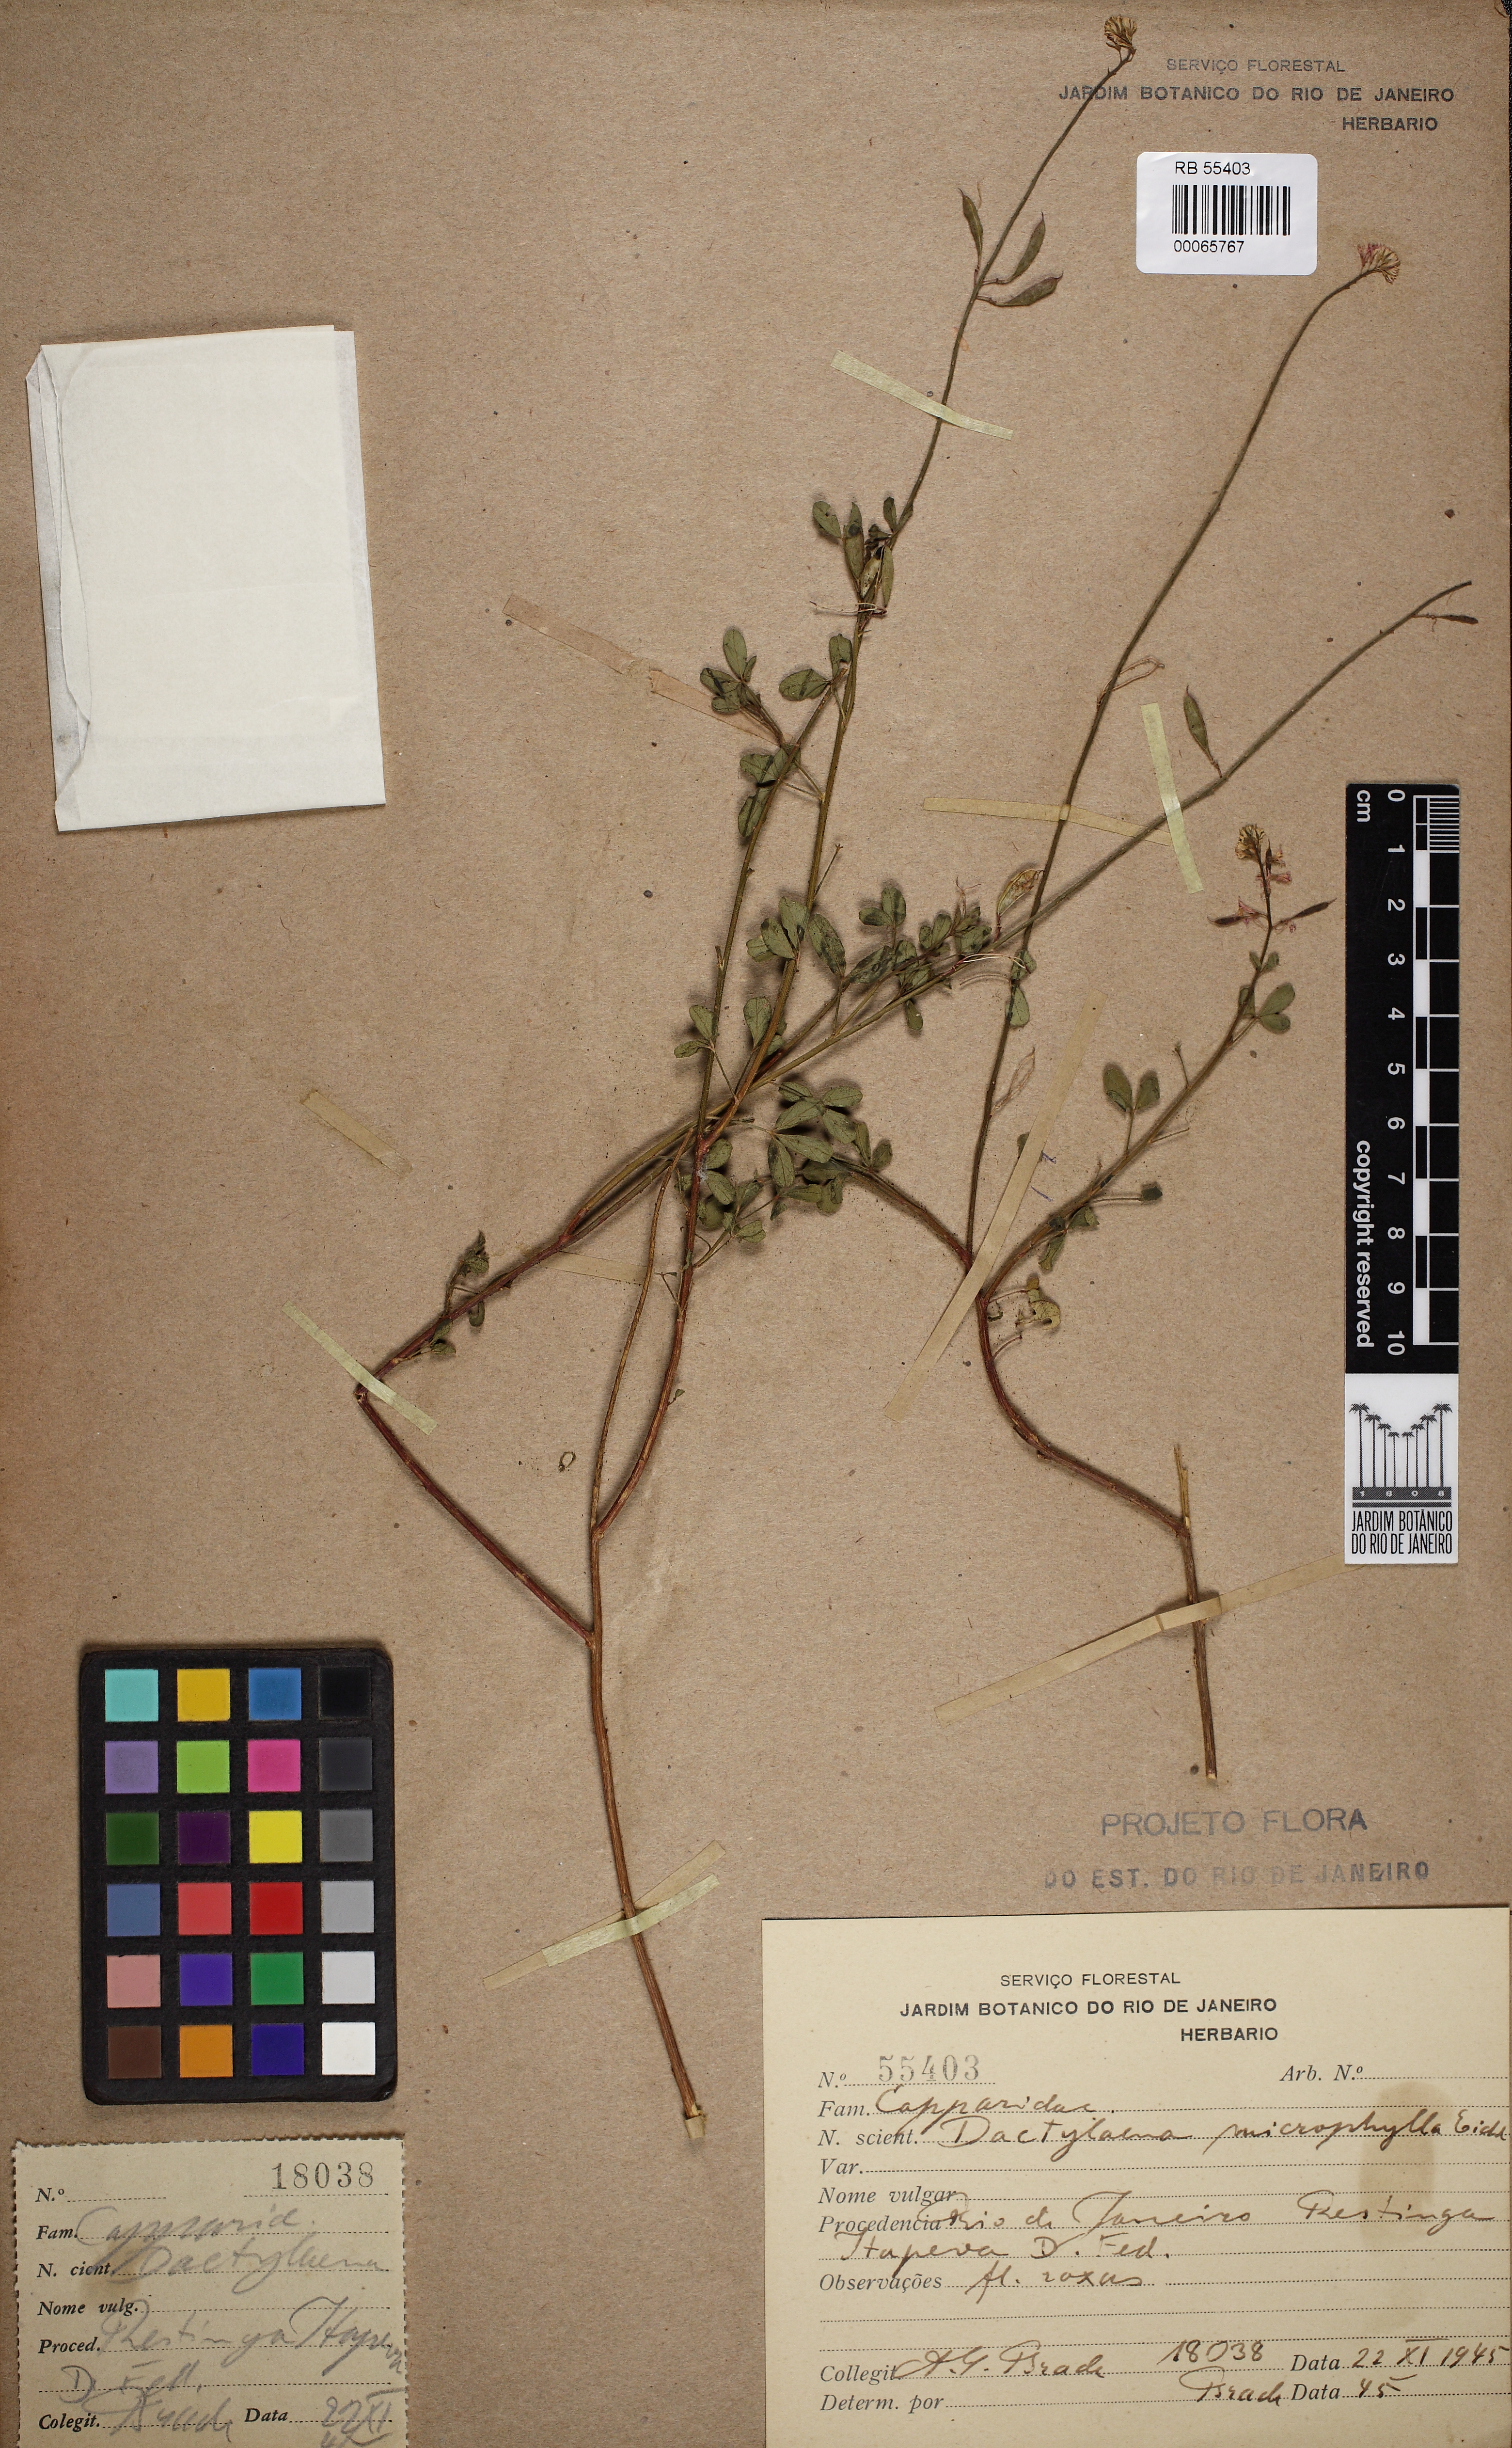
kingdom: Plantae
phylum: Tracheophyta
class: Magnoliopsida
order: Brassicales
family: Cleomaceae
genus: Dactylaena
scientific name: Dactylaena microphylla
